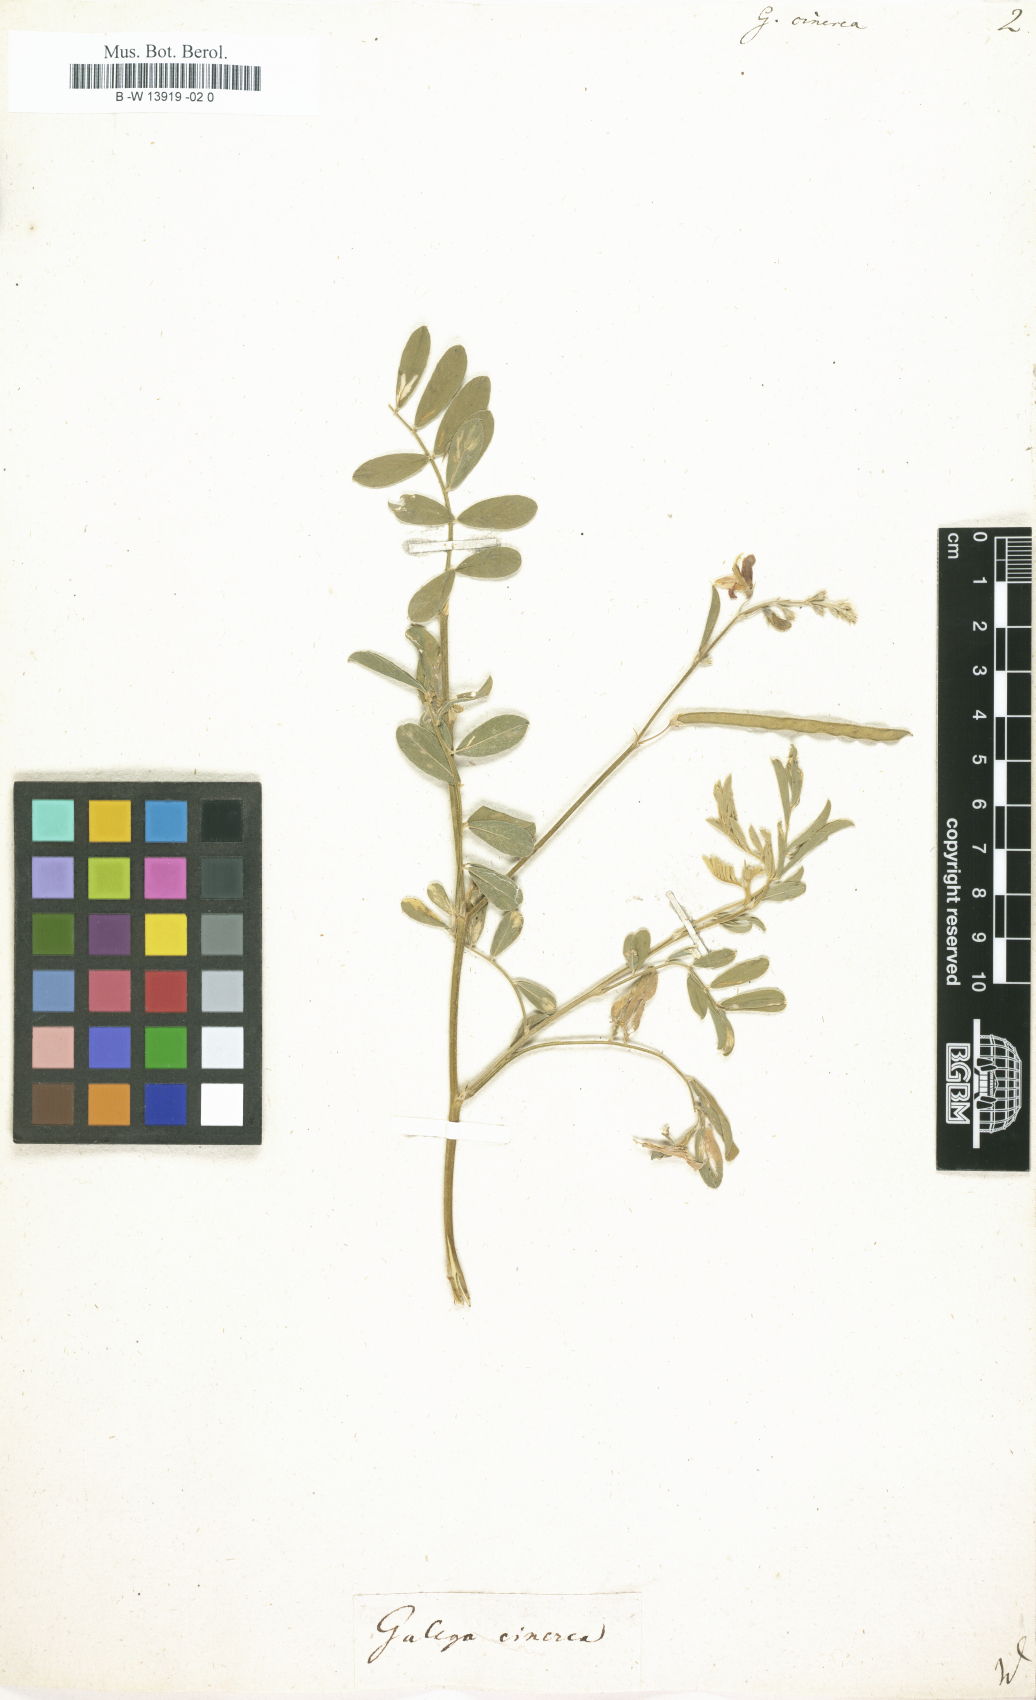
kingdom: Plantae
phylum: Tracheophyta
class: Magnoliopsida
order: Fabales
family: Fabaceae
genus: Tephrosia
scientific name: Tephrosia cinerea
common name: Ashen hoarypea
